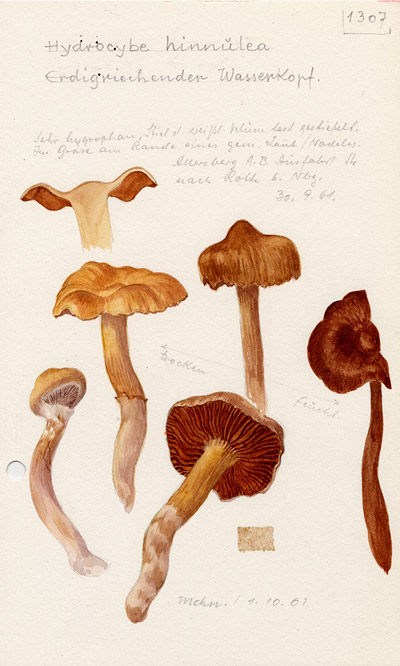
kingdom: Fungi
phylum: Basidiomycota
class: Agaricomycetes
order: Agaricales
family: Cortinariaceae
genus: Cortinarius
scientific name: Cortinarius hinnuleus
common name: Earthy webcap
